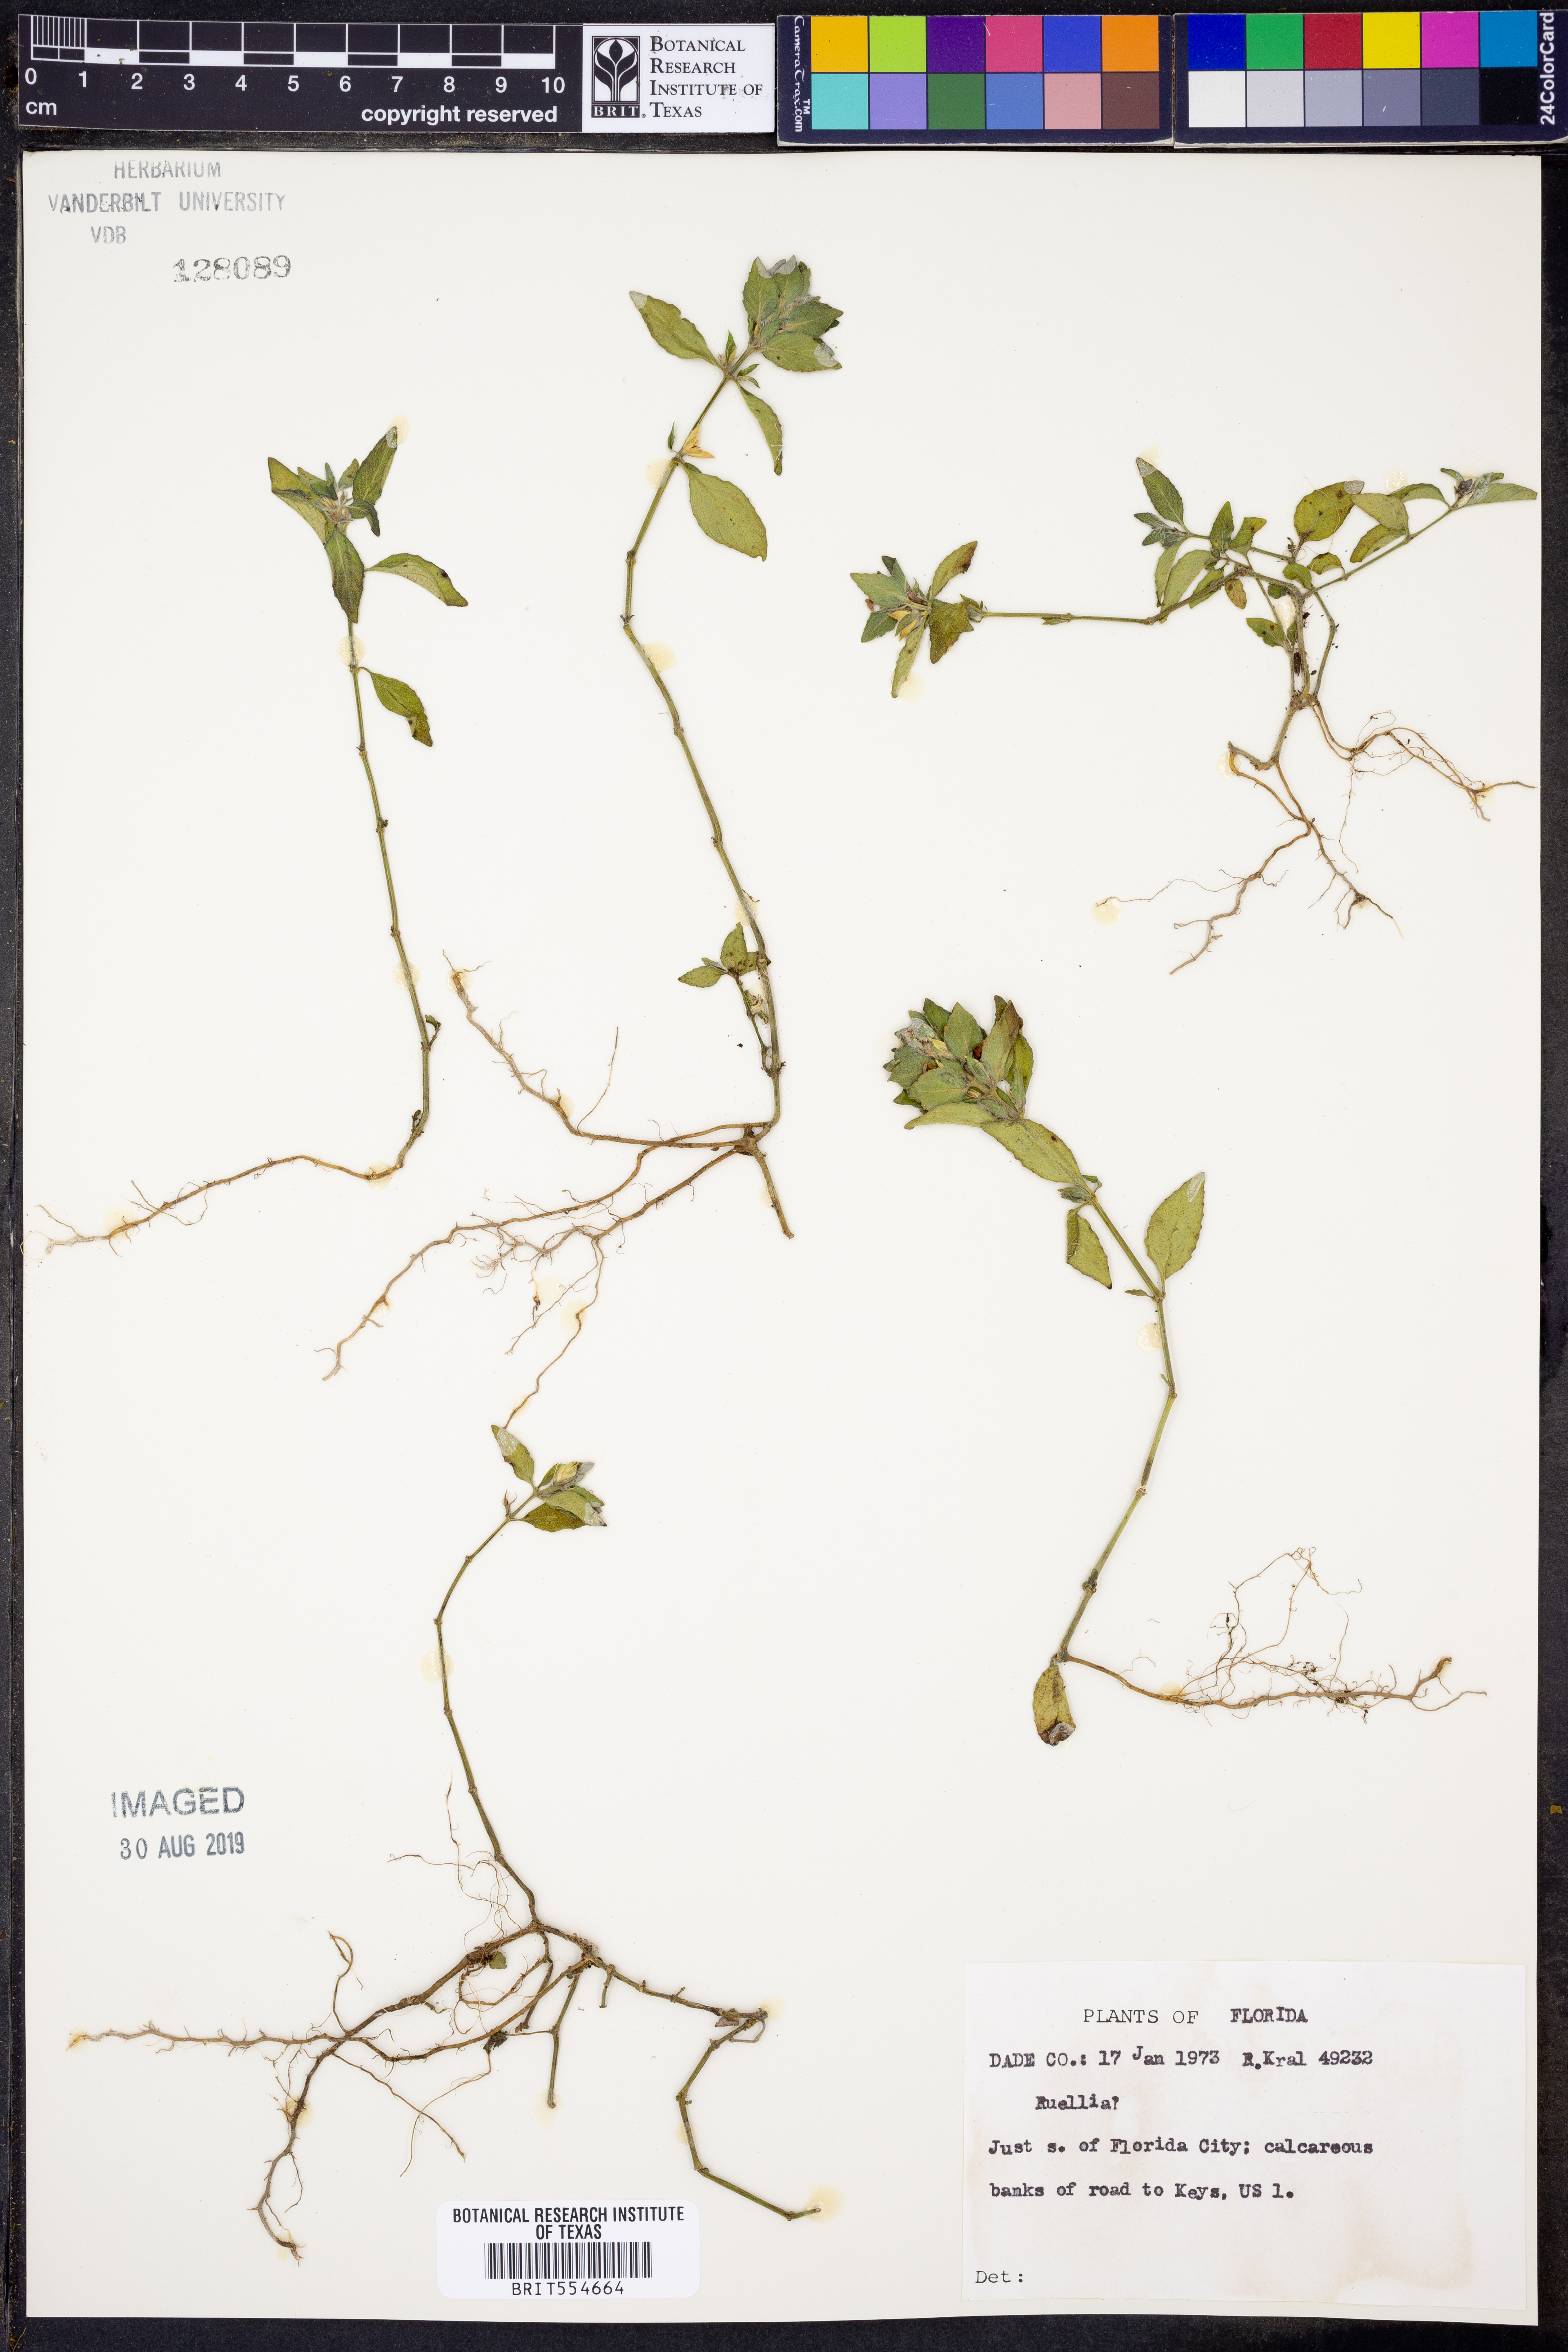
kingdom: Plantae
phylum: Tracheophyta
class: Magnoliopsida
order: Lamiales
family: Acanthaceae
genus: Ruellia
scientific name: Ruellia
